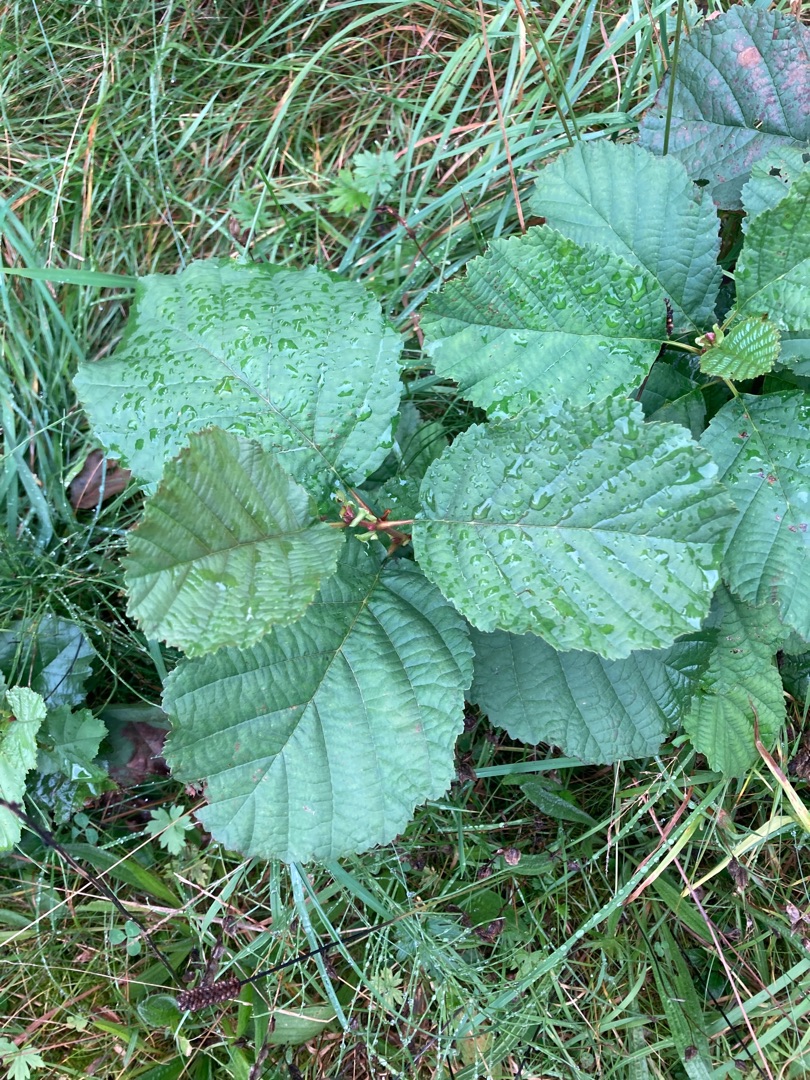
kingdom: Plantae
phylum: Tracheophyta
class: Magnoliopsida
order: Fagales
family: Betulaceae
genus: Alnus
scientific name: Alnus glutinosa
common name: Rød-el
